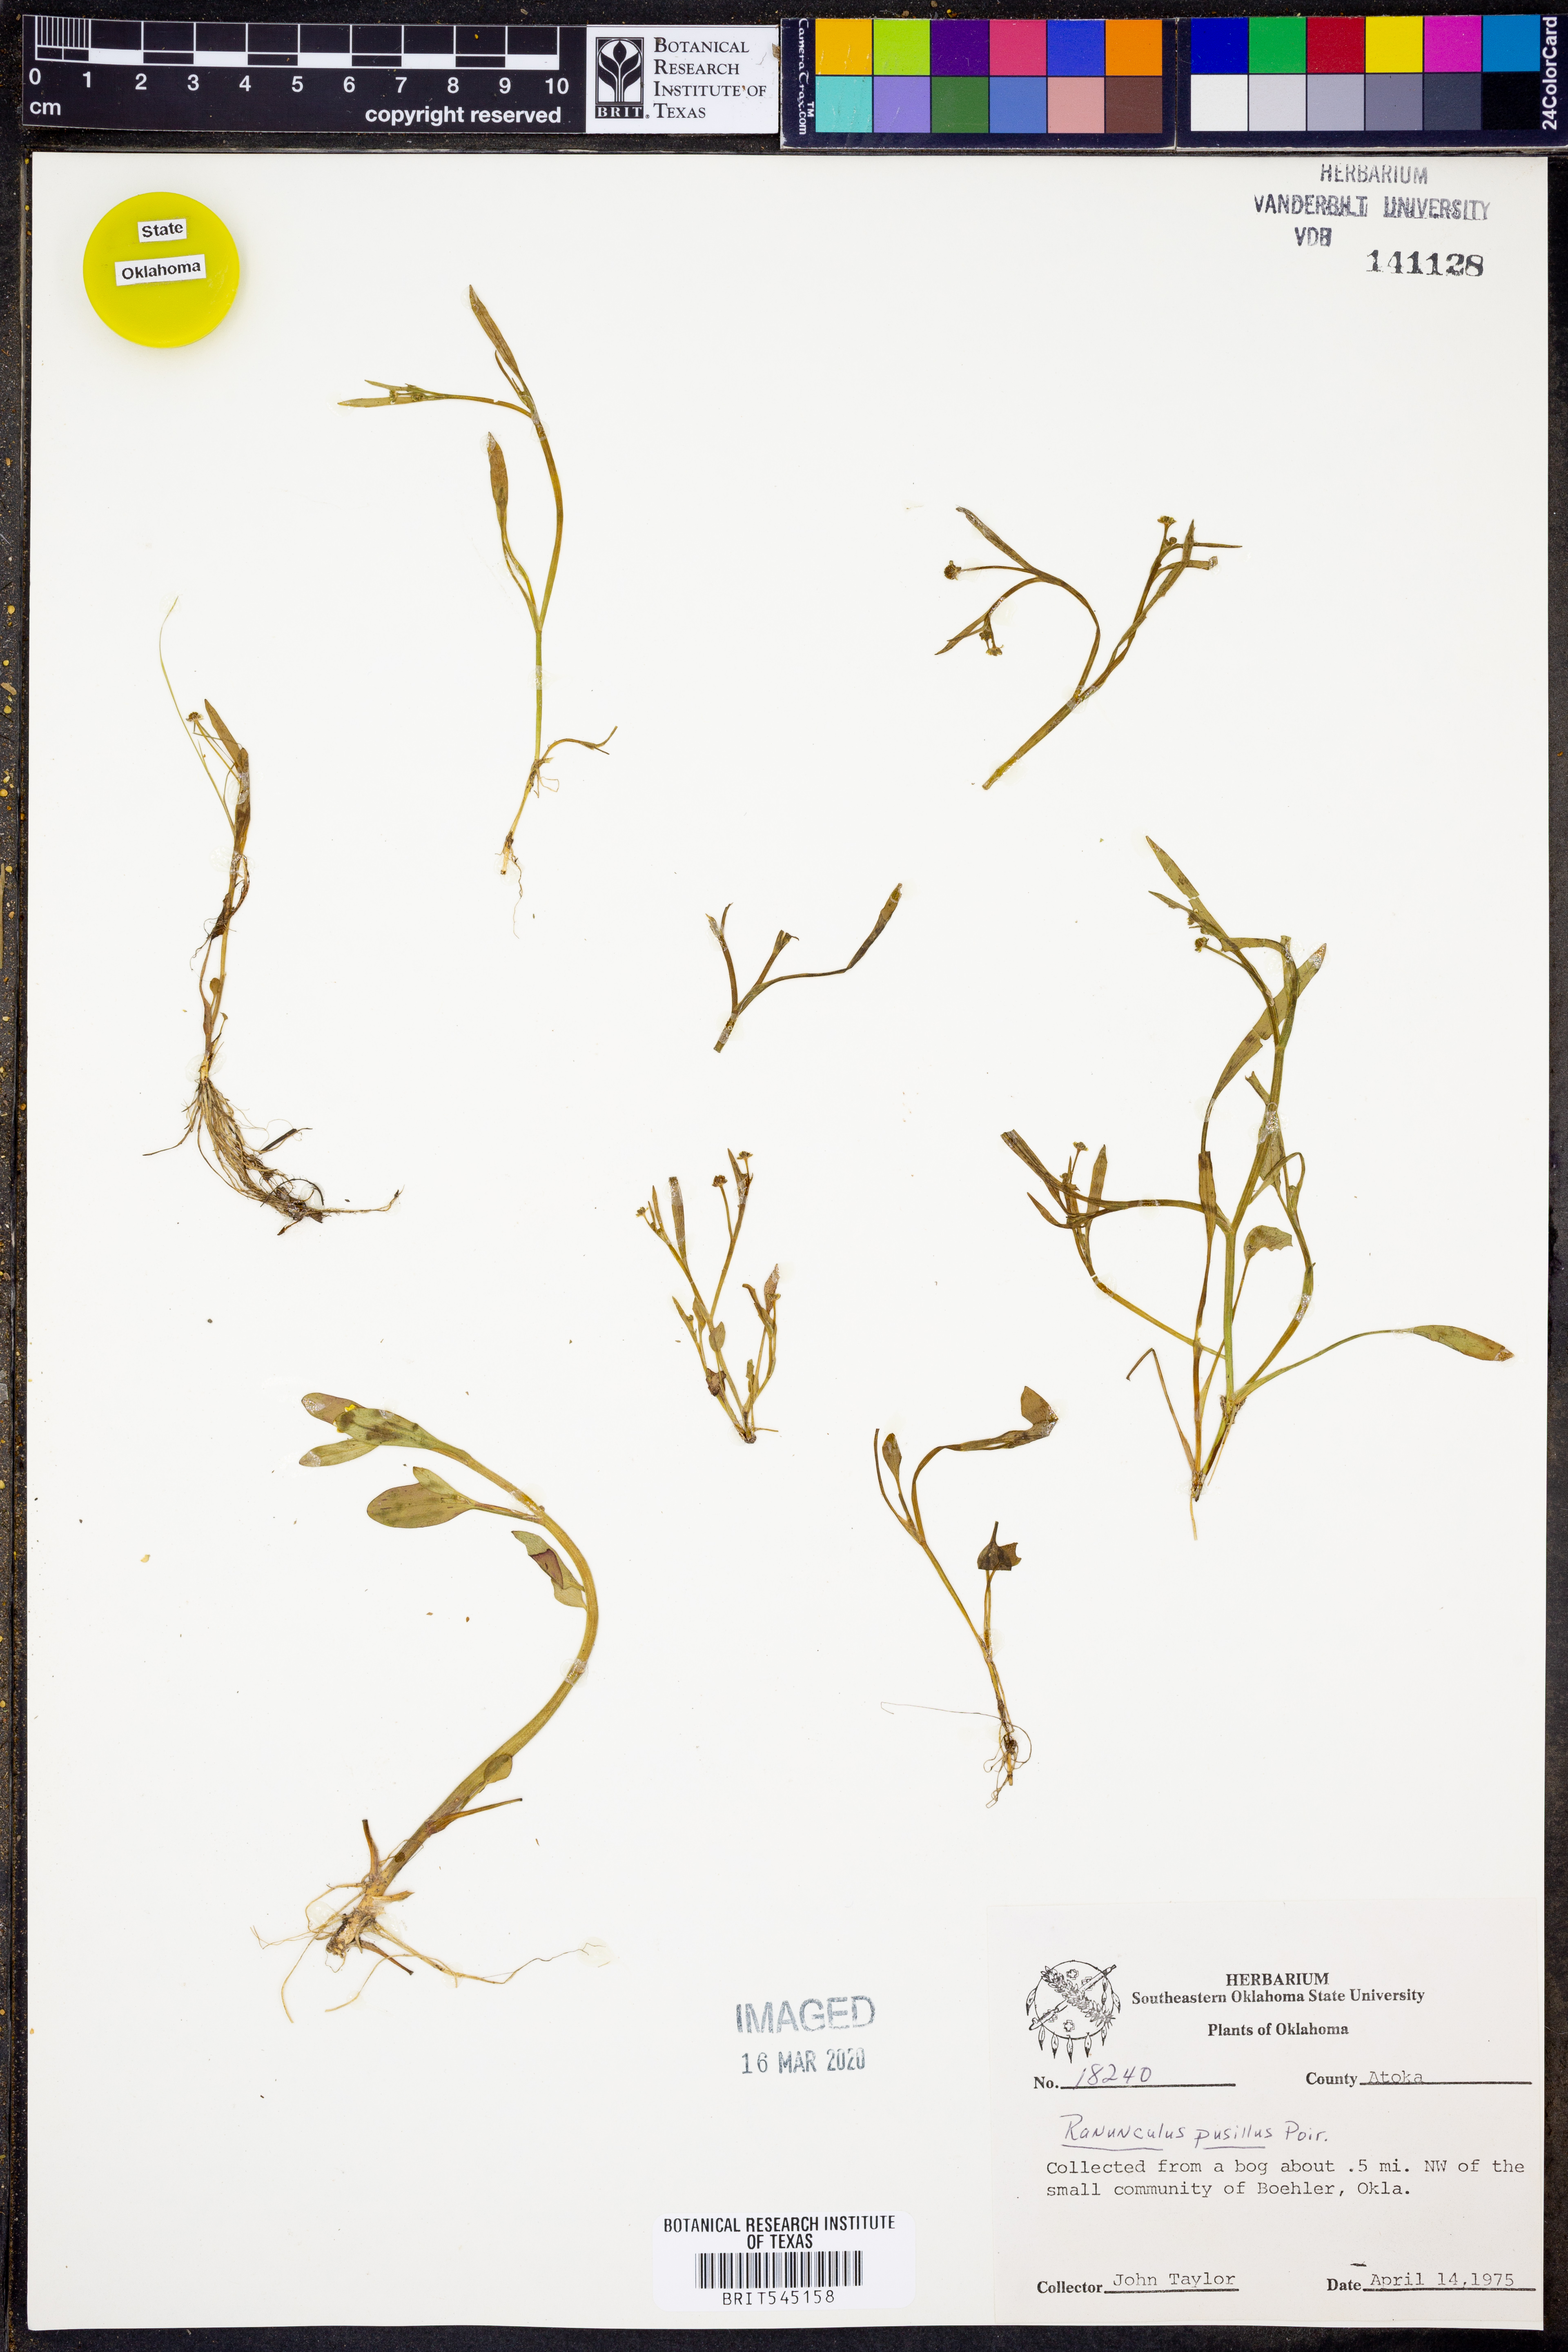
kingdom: Plantae
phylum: Tracheophyta
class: Magnoliopsida
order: Ranunculales
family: Ranunculaceae
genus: Ranunculus
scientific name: Ranunculus pusillus
